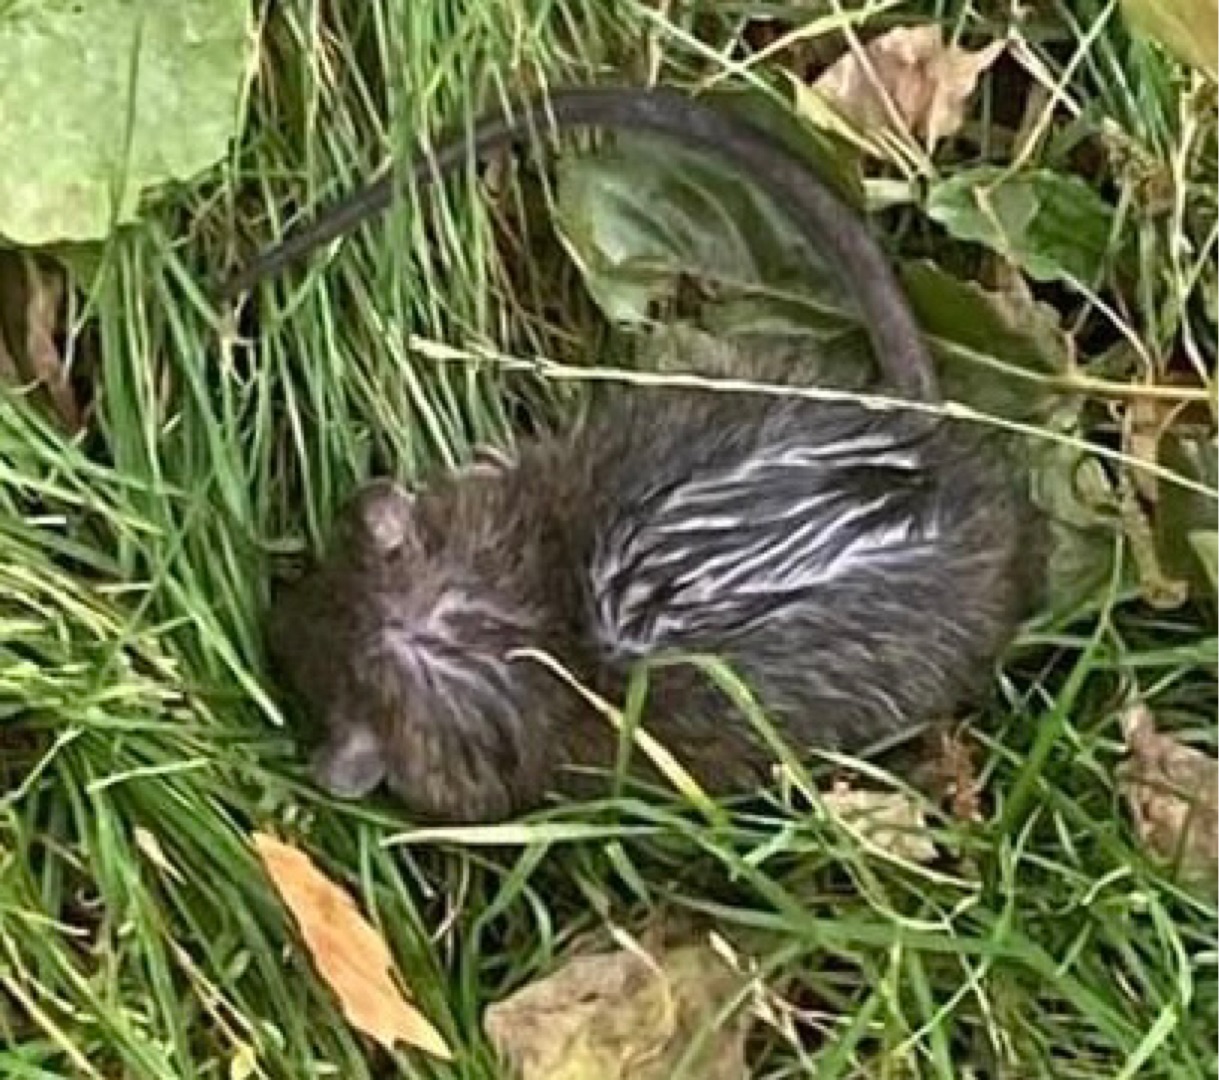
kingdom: Animalia
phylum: Chordata
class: Mammalia
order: Rodentia
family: Muridae
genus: Rattus
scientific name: Rattus norvegicus
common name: Brun rotte
